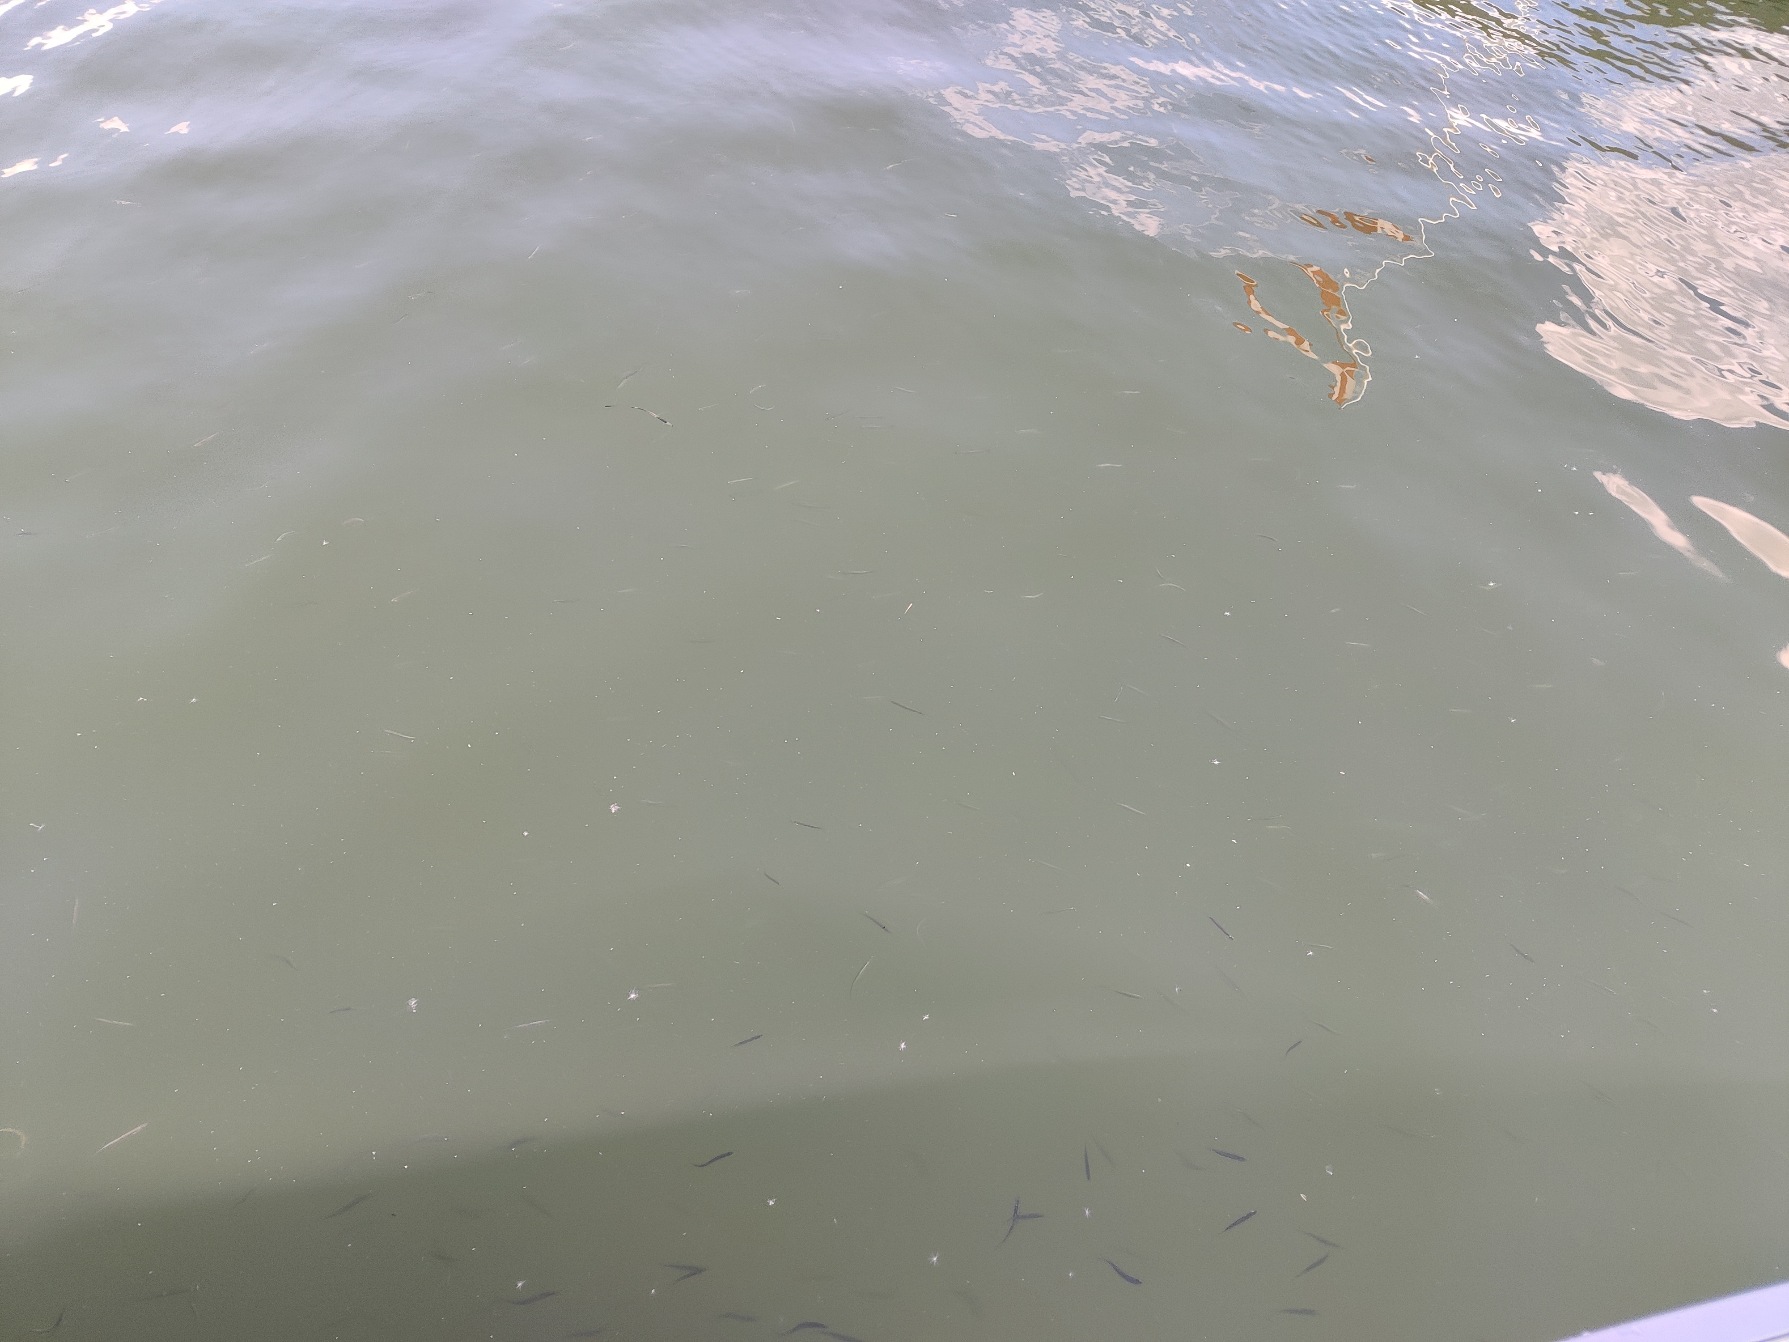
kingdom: Animalia
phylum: Chordata
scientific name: Chordata
